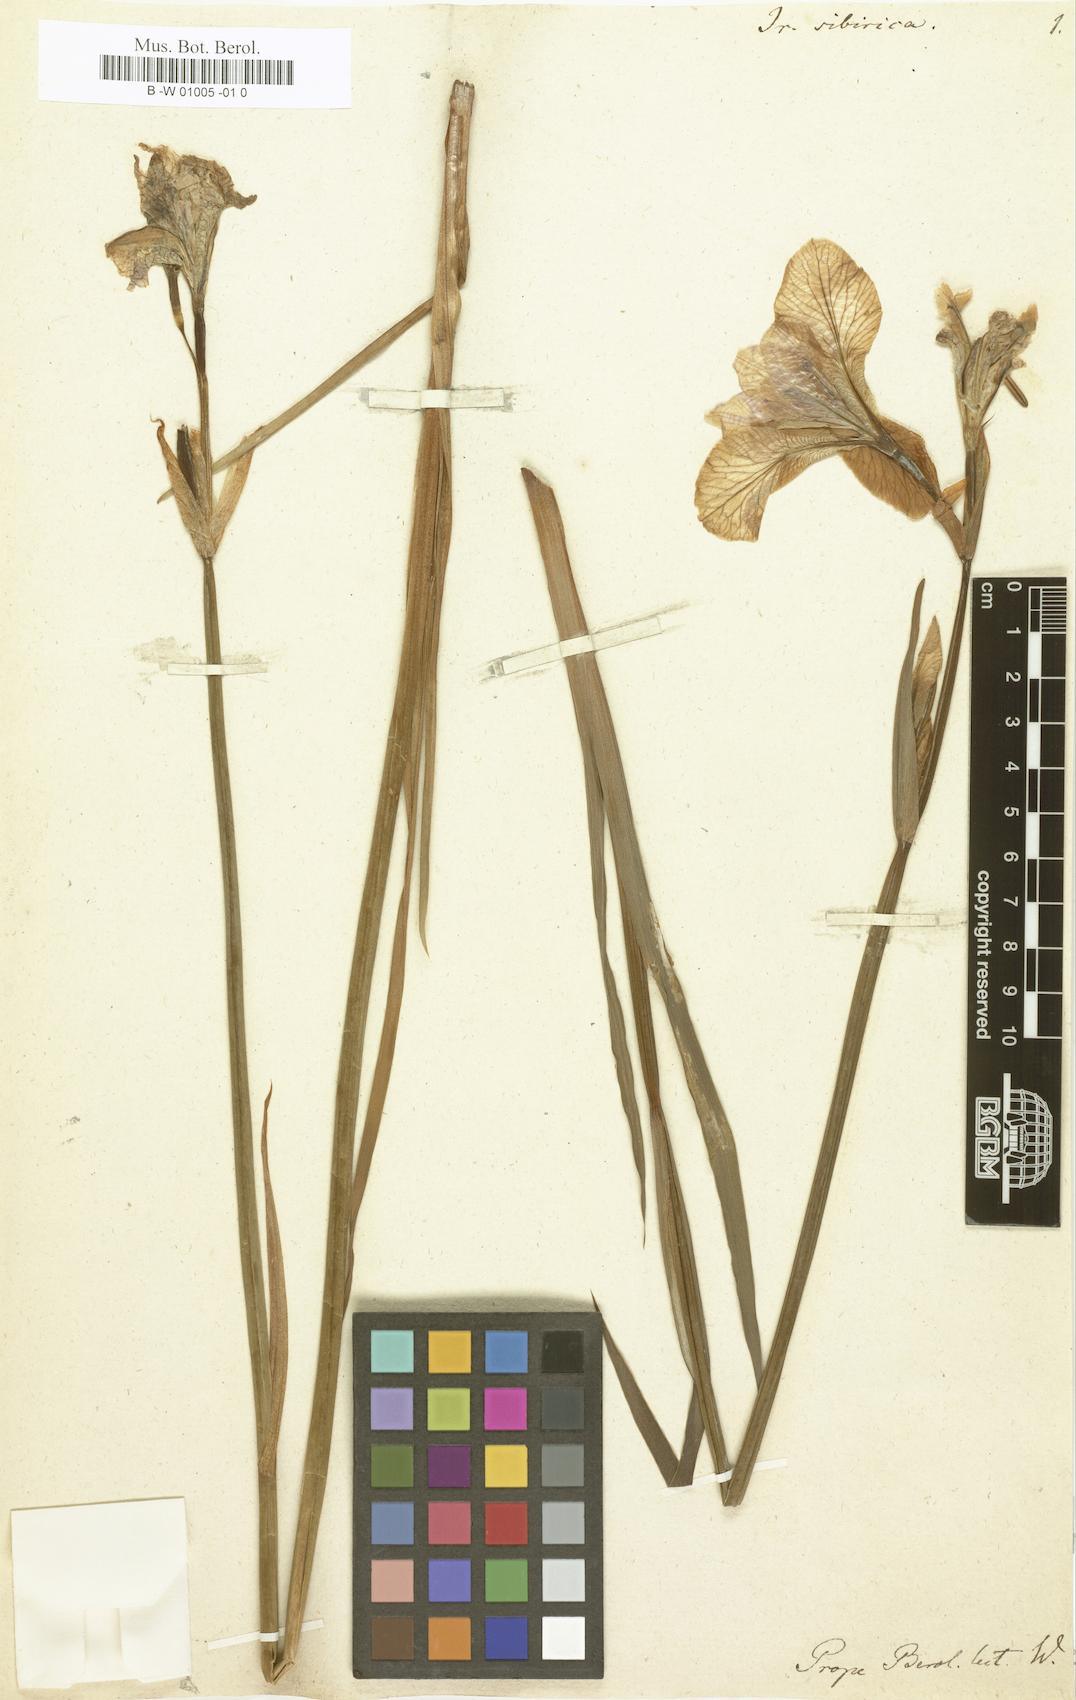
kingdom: Plantae
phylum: Tracheophyta
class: Liliopsida
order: Asparagales
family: Iridaceae
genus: Iris
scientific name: Iris sibirica
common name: Siberian iris
